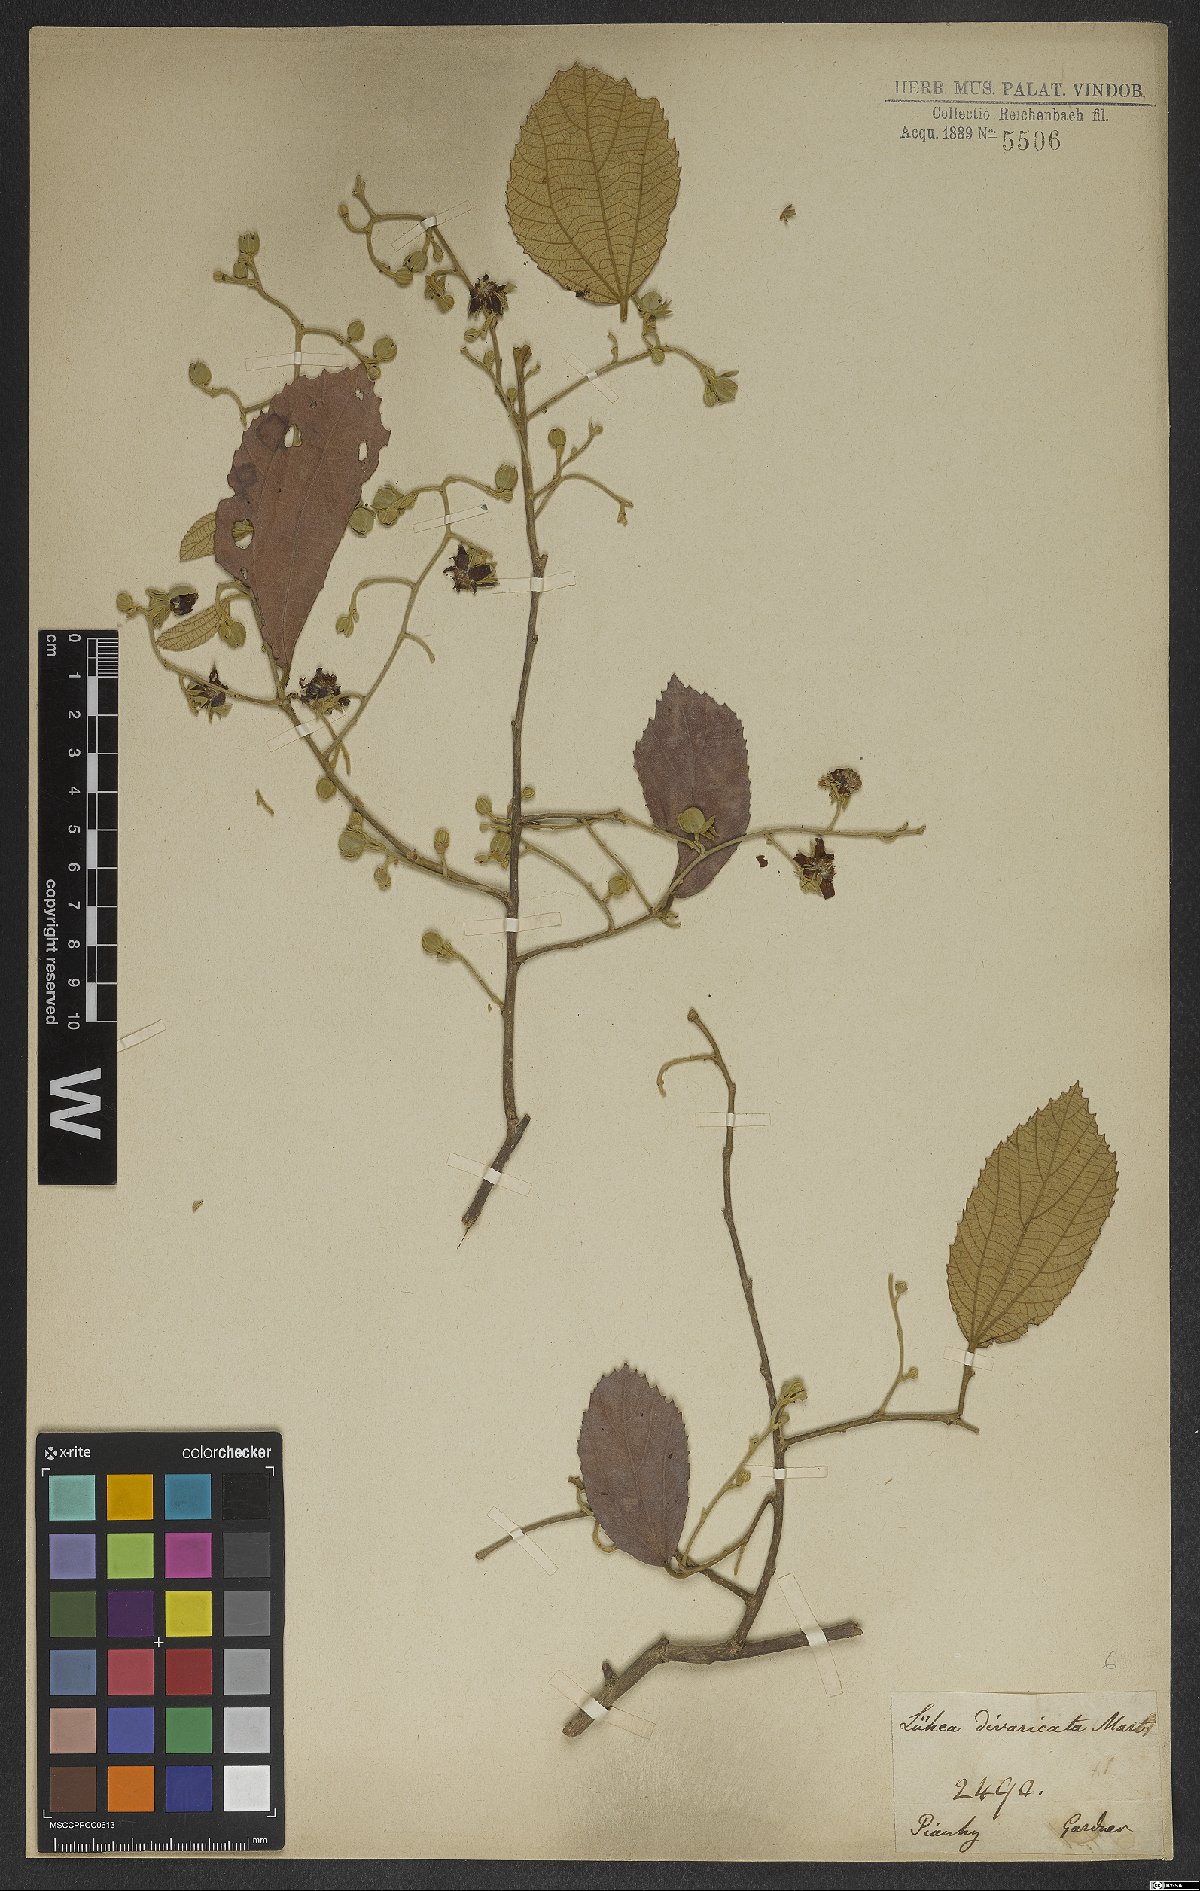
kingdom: Plantae
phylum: Tracheophyta
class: Magnoliopsida
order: Malvales
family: Malvaceae
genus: Luehea
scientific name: Luehea divaricata
